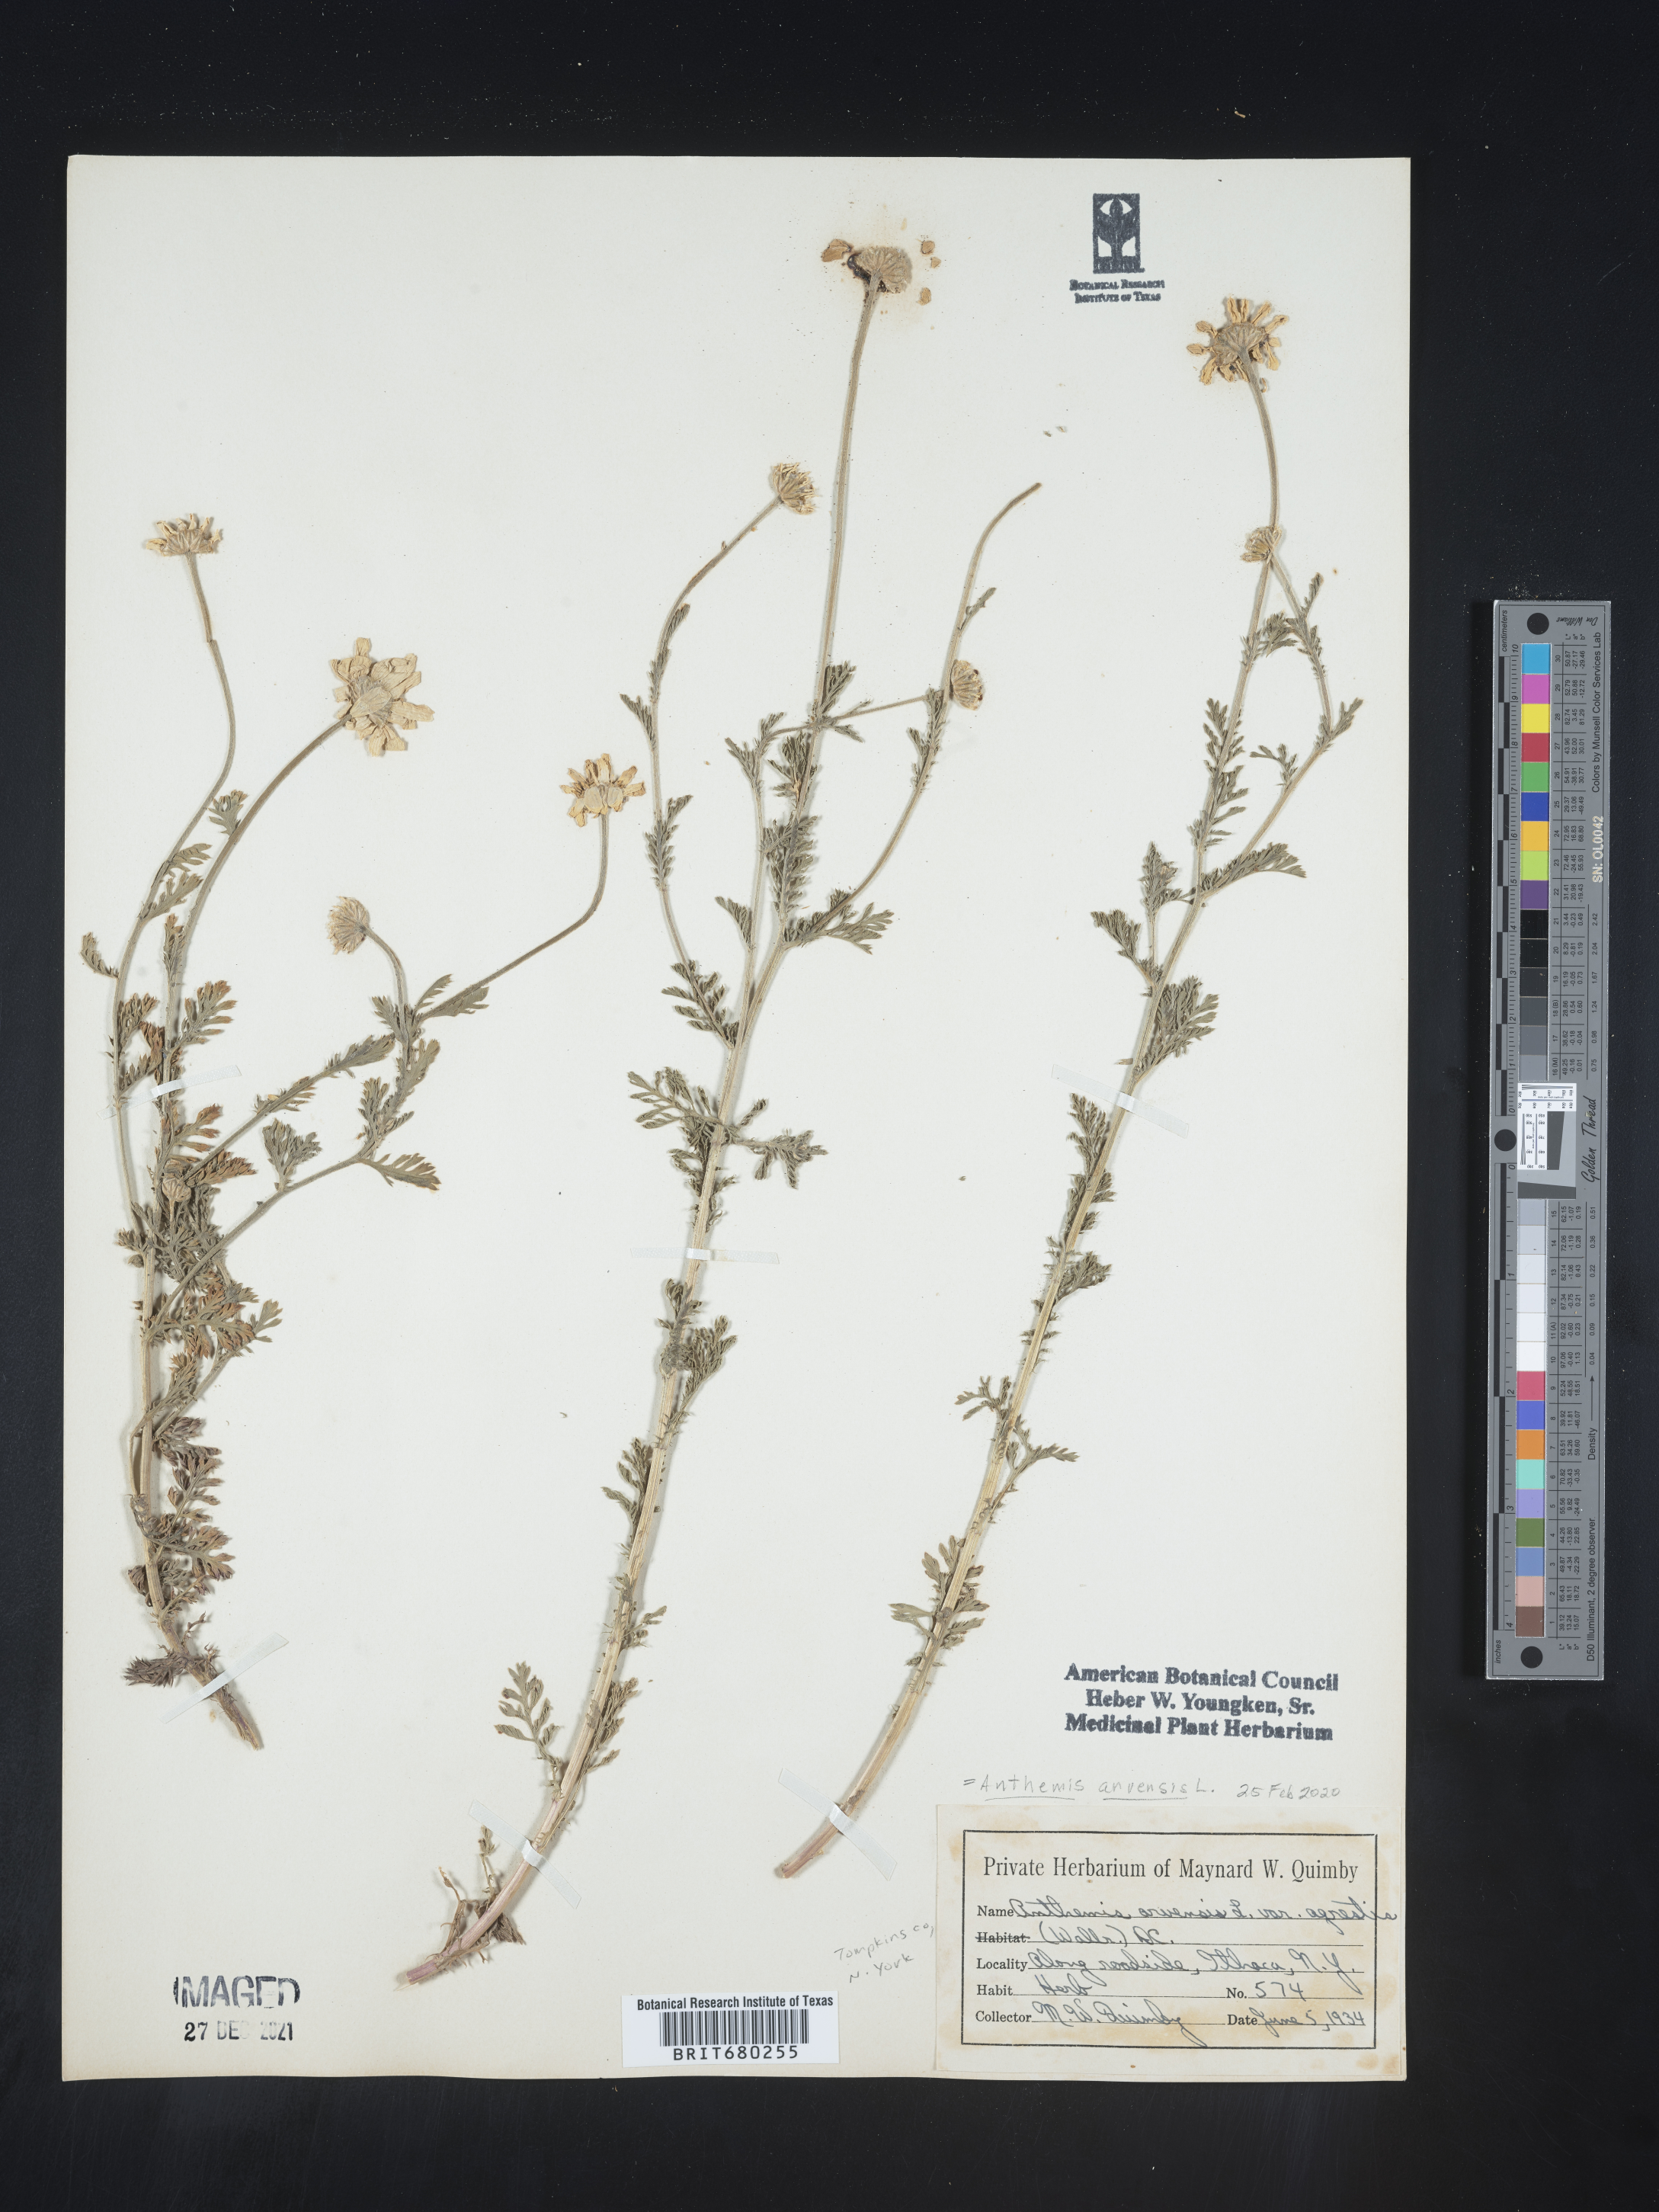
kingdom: Plantae
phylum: Tracheophyta
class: Magnoliopsida
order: Asterales
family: Asteraceae
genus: Anthemis
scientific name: Anthemis arvensis
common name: Corn chamomile
